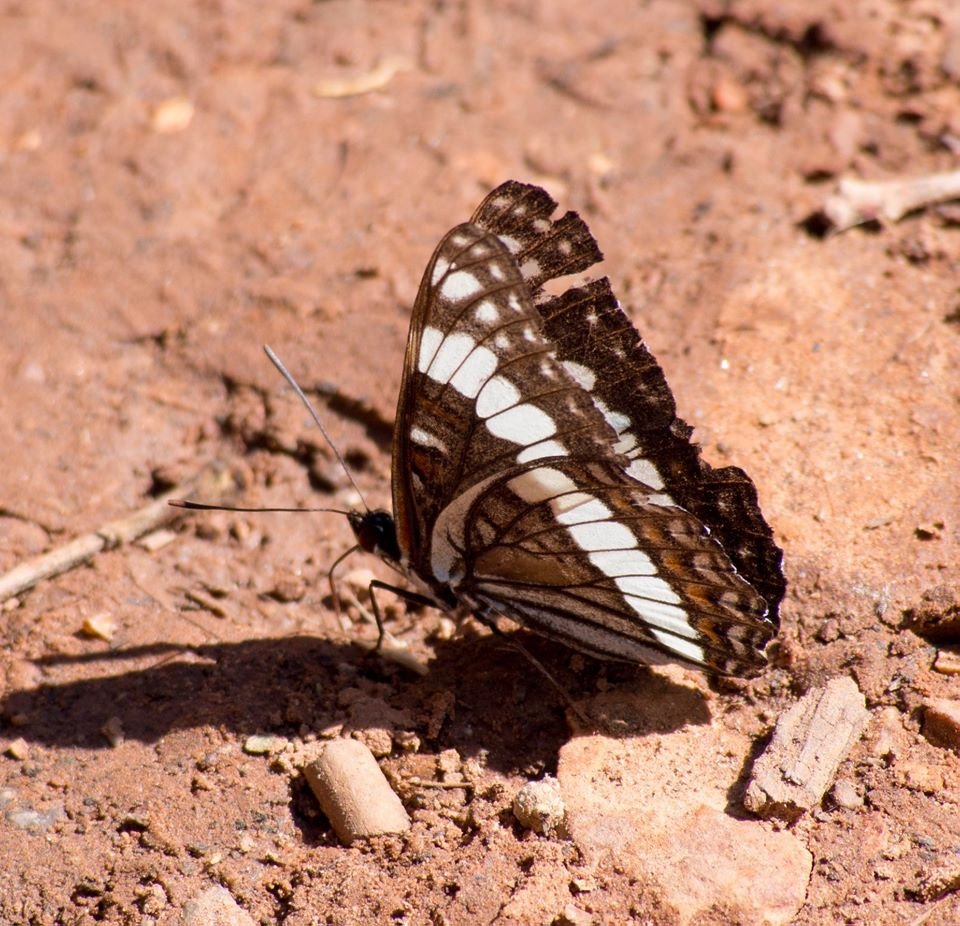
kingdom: Animalia
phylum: Arthropoda
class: Insecta
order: Lepidoptera
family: Nymphalidae
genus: Limenitis
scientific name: Limenitis weidemeyerii
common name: Weidemeyer's Admiral
